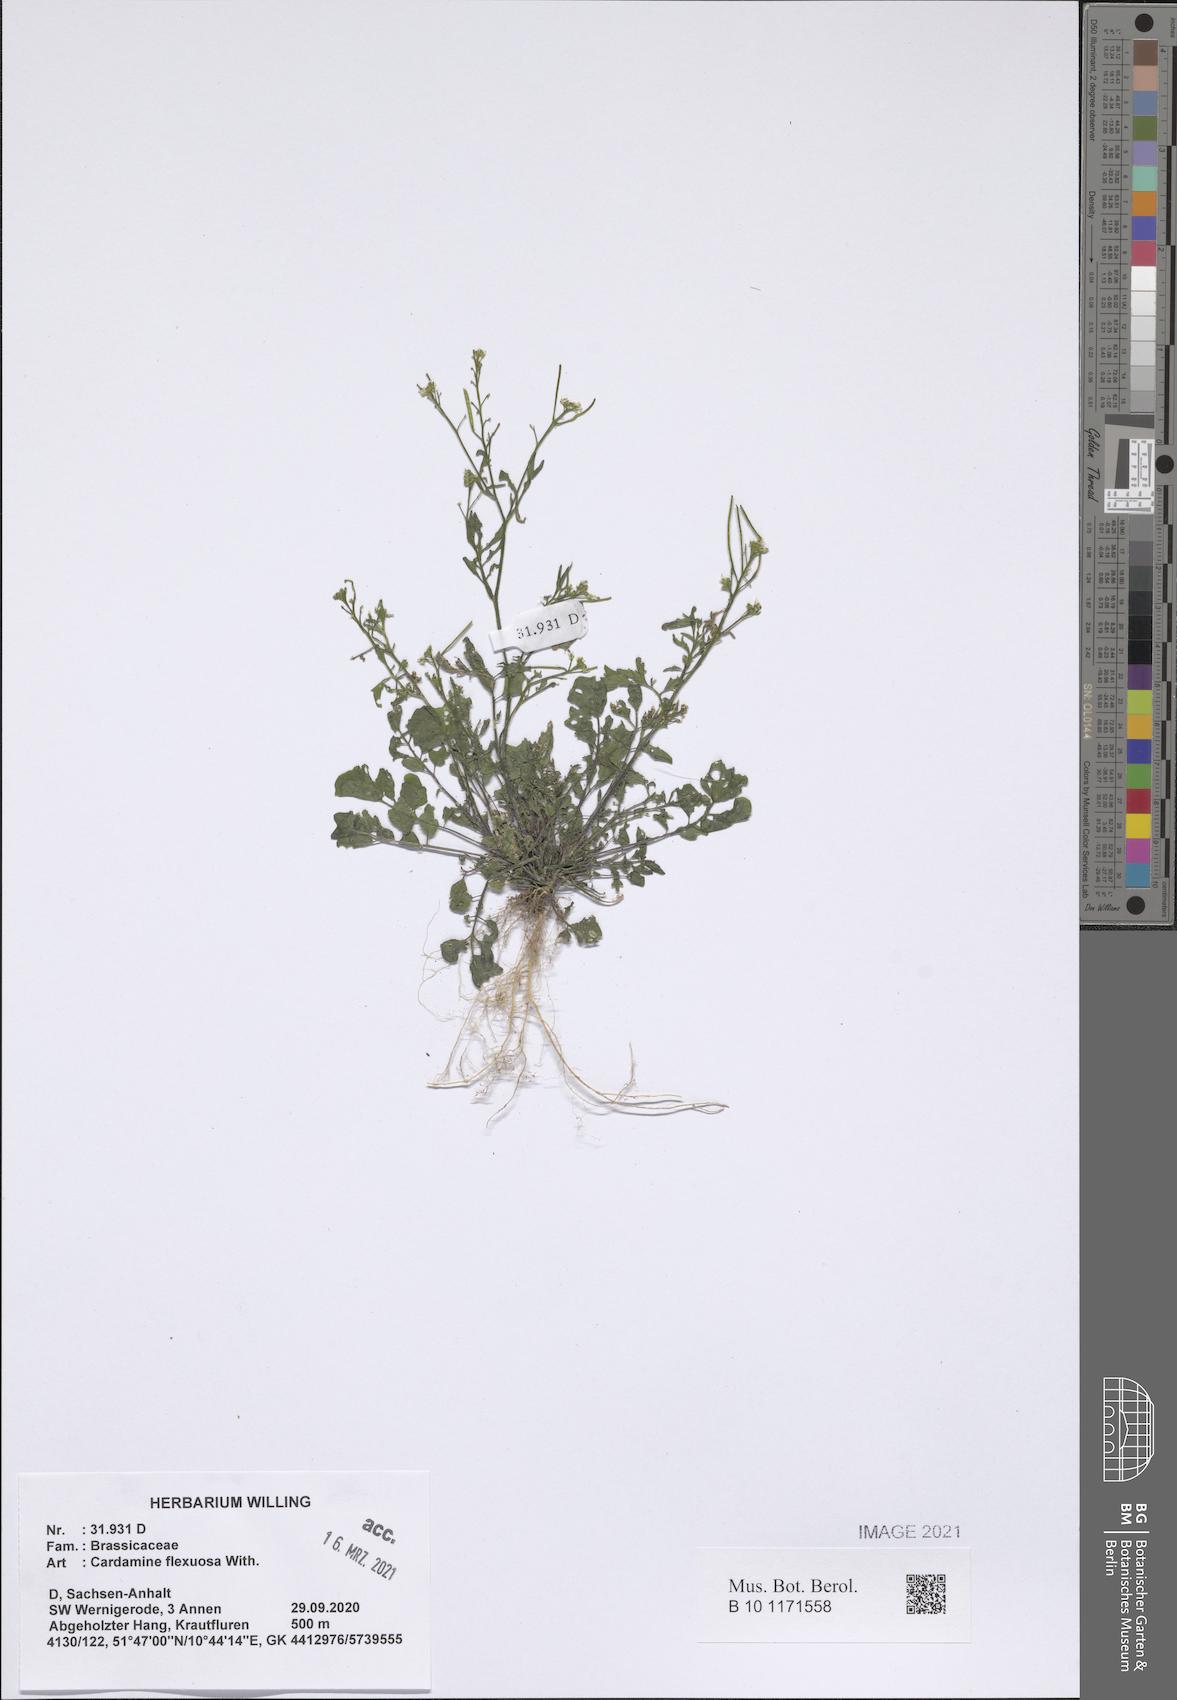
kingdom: Plantae
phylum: Tracheophyta
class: Magnoliopsida
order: Brassicales
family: Brassicaceae
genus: Cardamine
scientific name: Cardamine flexuosa
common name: Woodland bittercress
